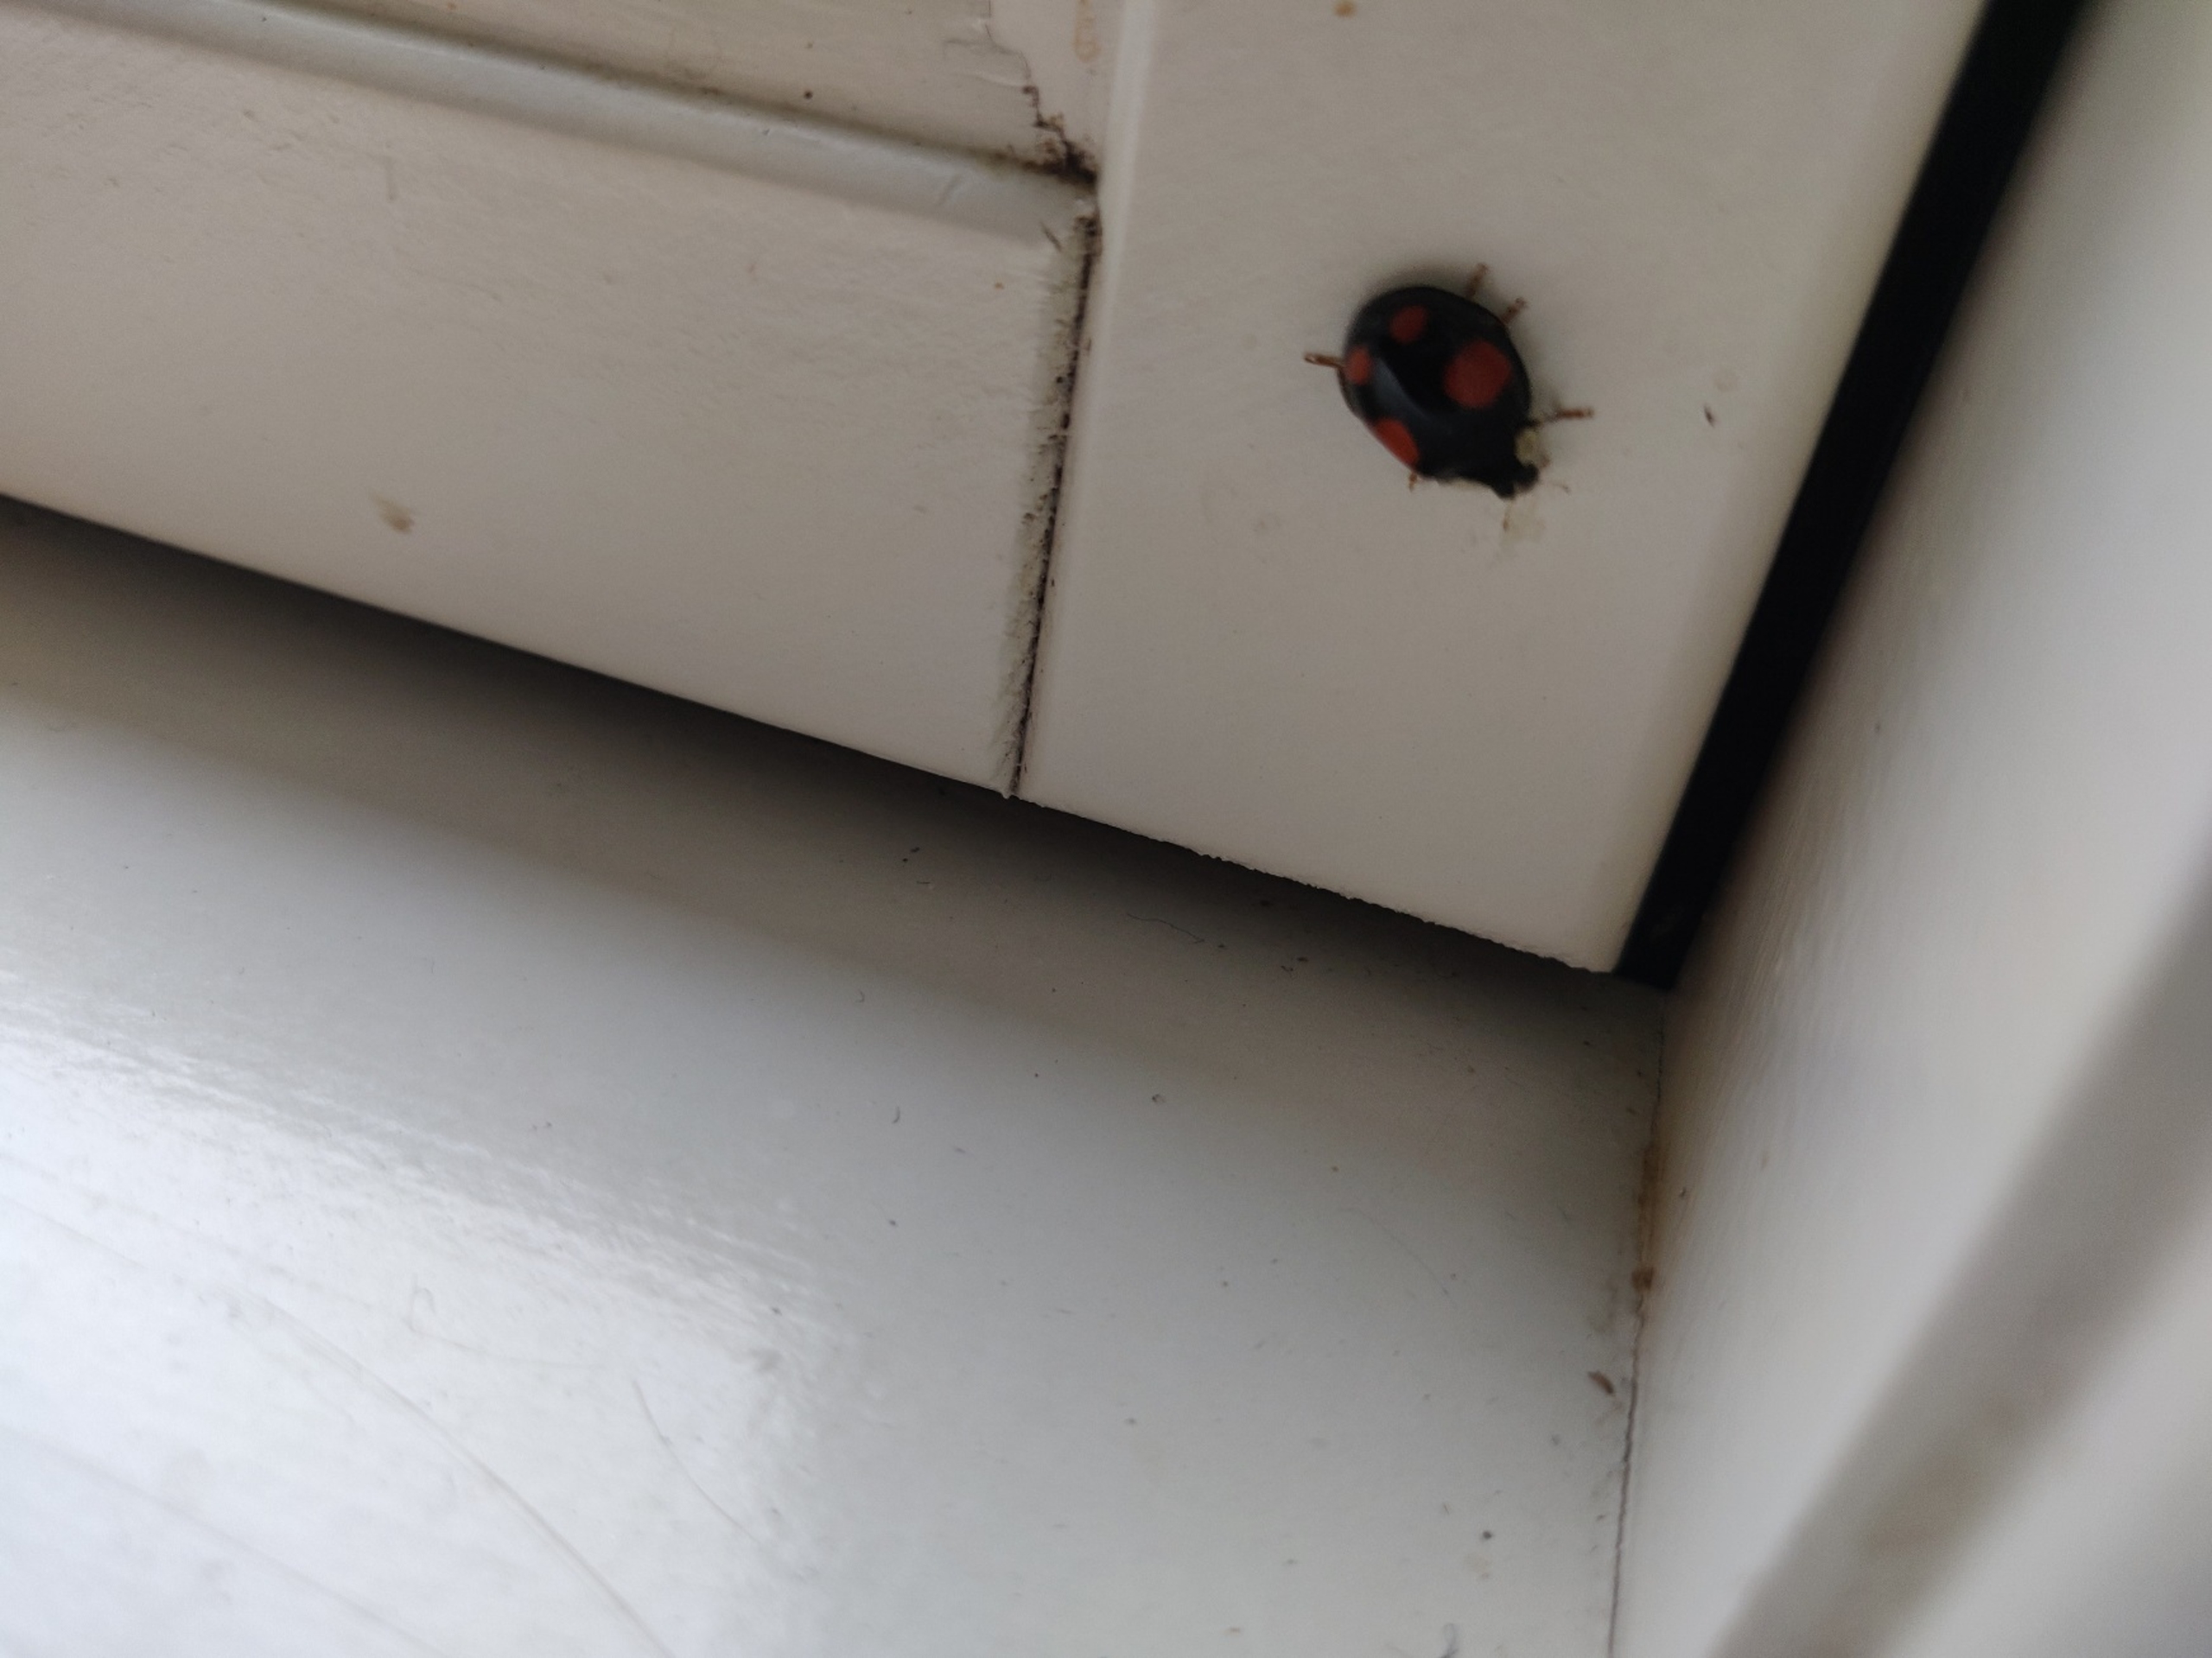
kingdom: Animalia
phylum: Arthropoda
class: Insecta
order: Coleoptera
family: Coccinellidae
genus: Harmonia
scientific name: Harmonia axyridis
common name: Harlekinmariehøne
